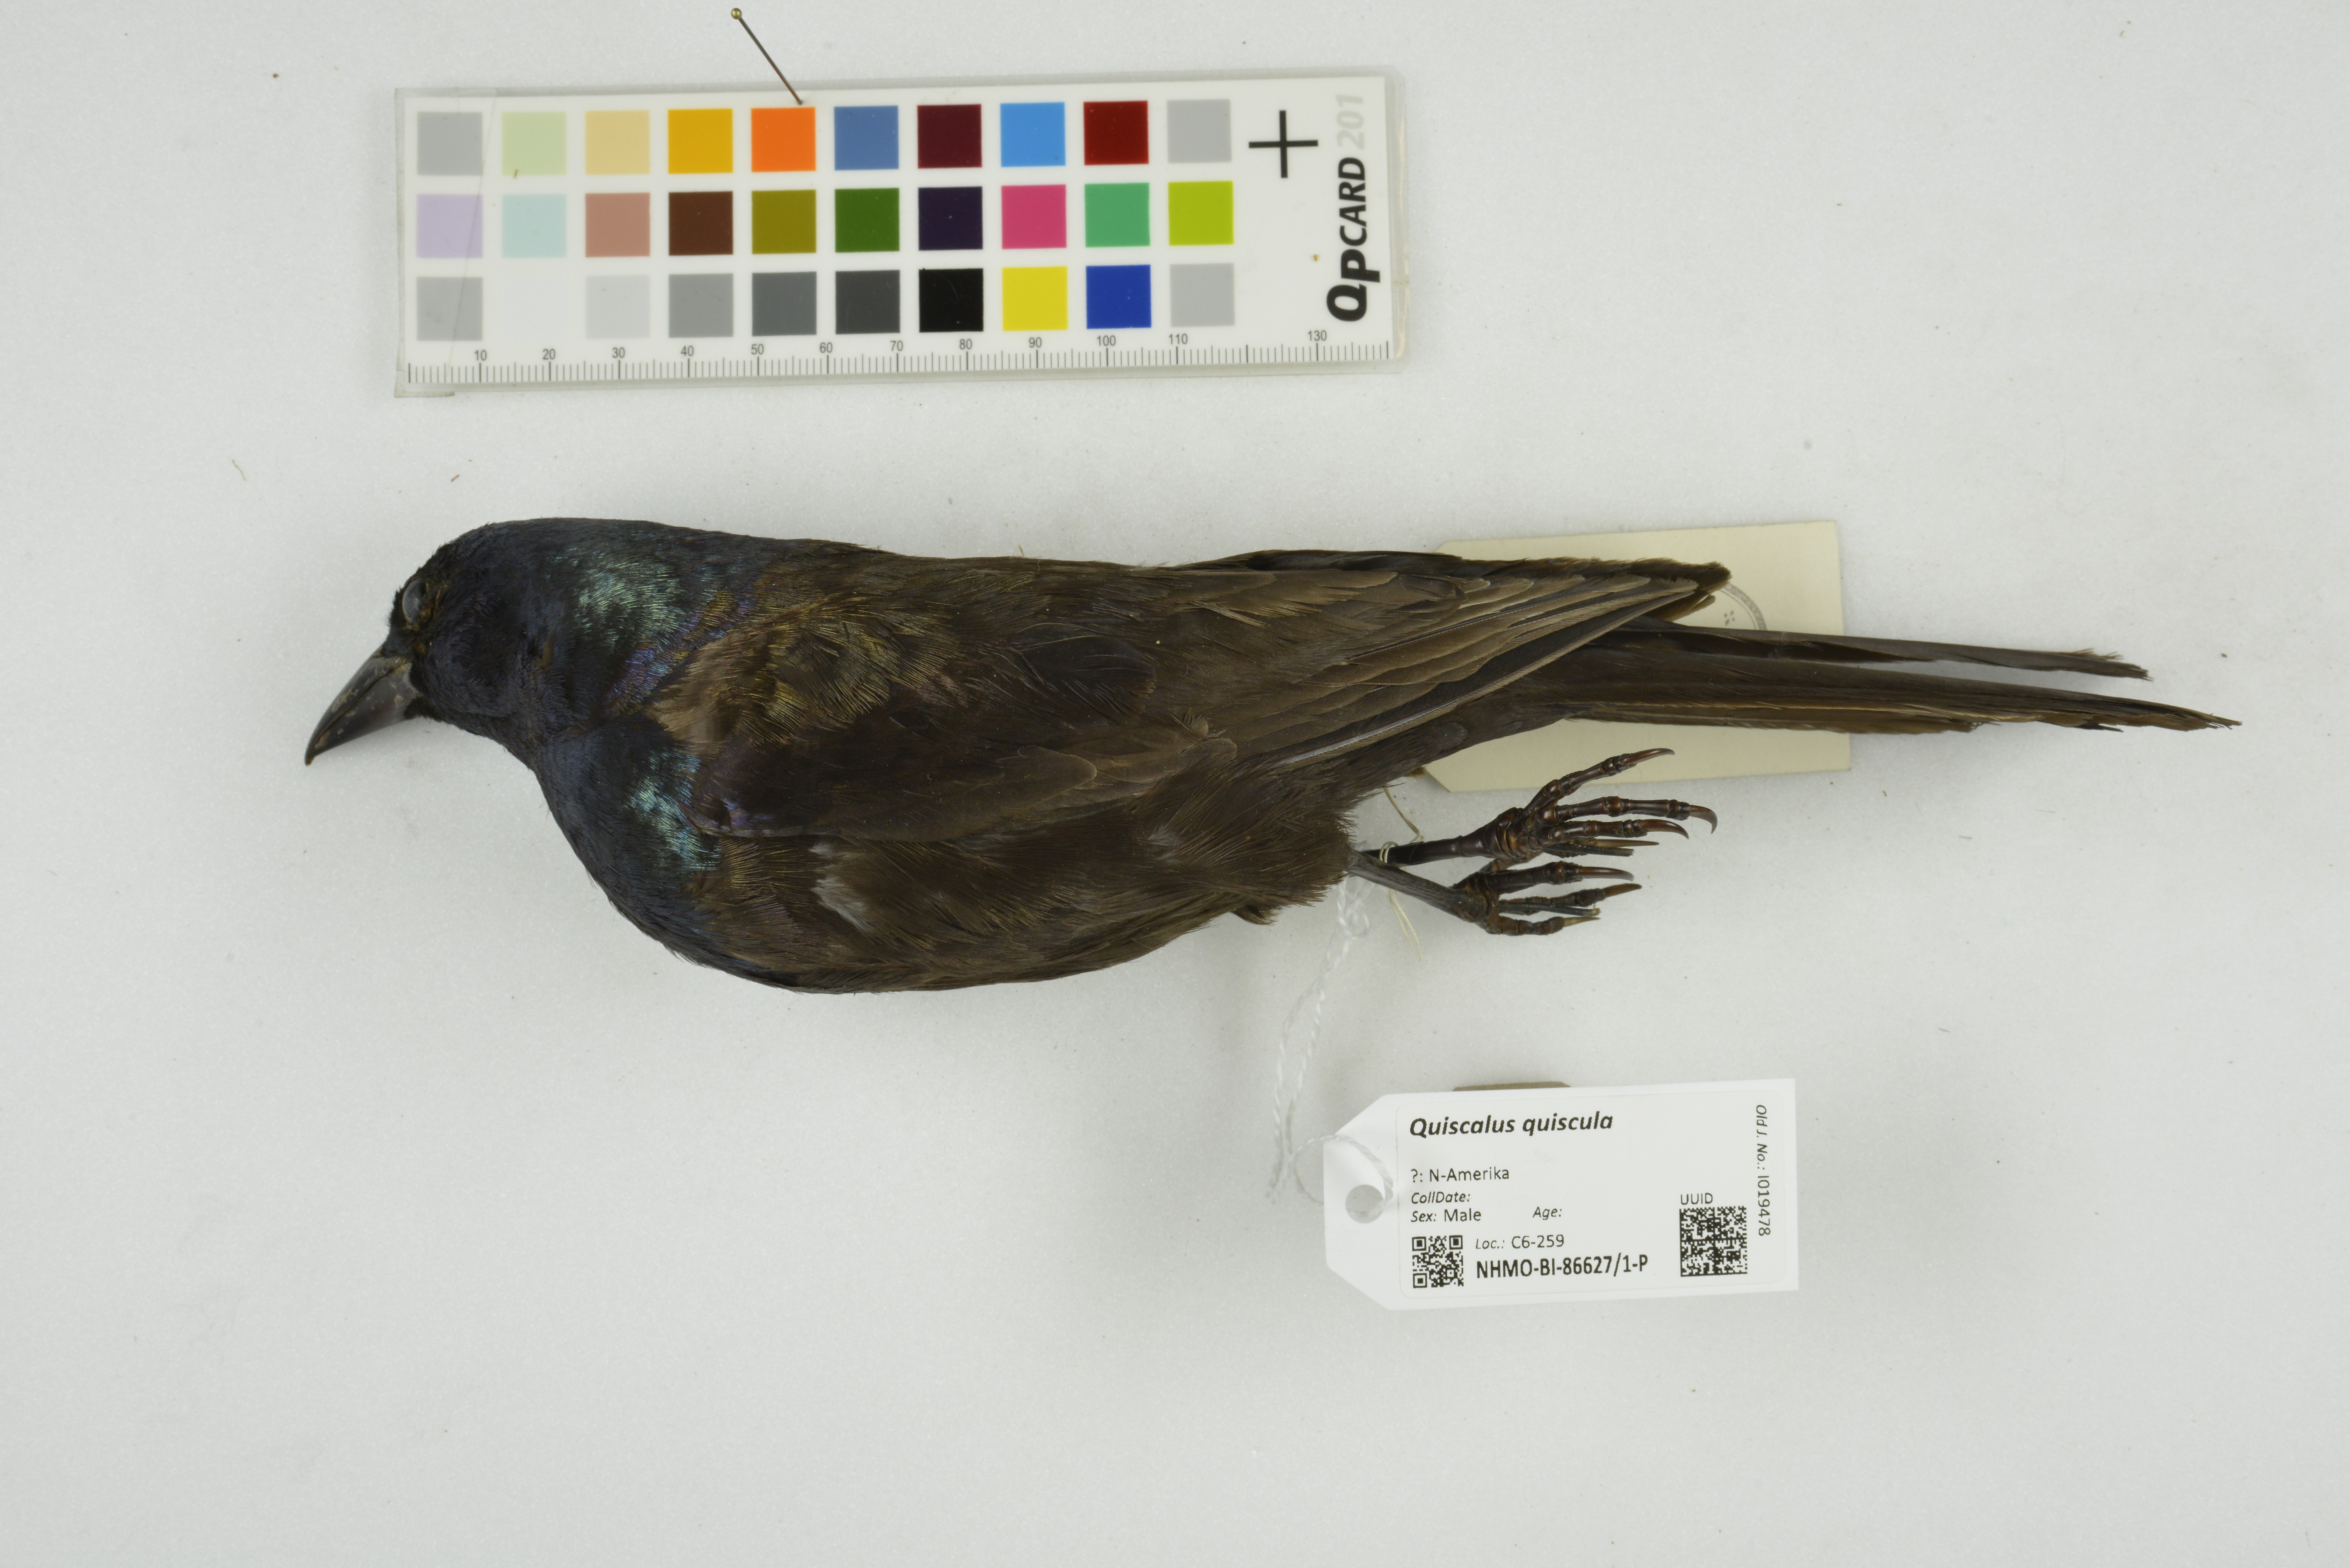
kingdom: Animalia
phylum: Chordata
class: Aves
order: Passeriformes
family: Icteridae
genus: Quiscalus
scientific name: Quiscalus quiscula
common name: Common grackle
